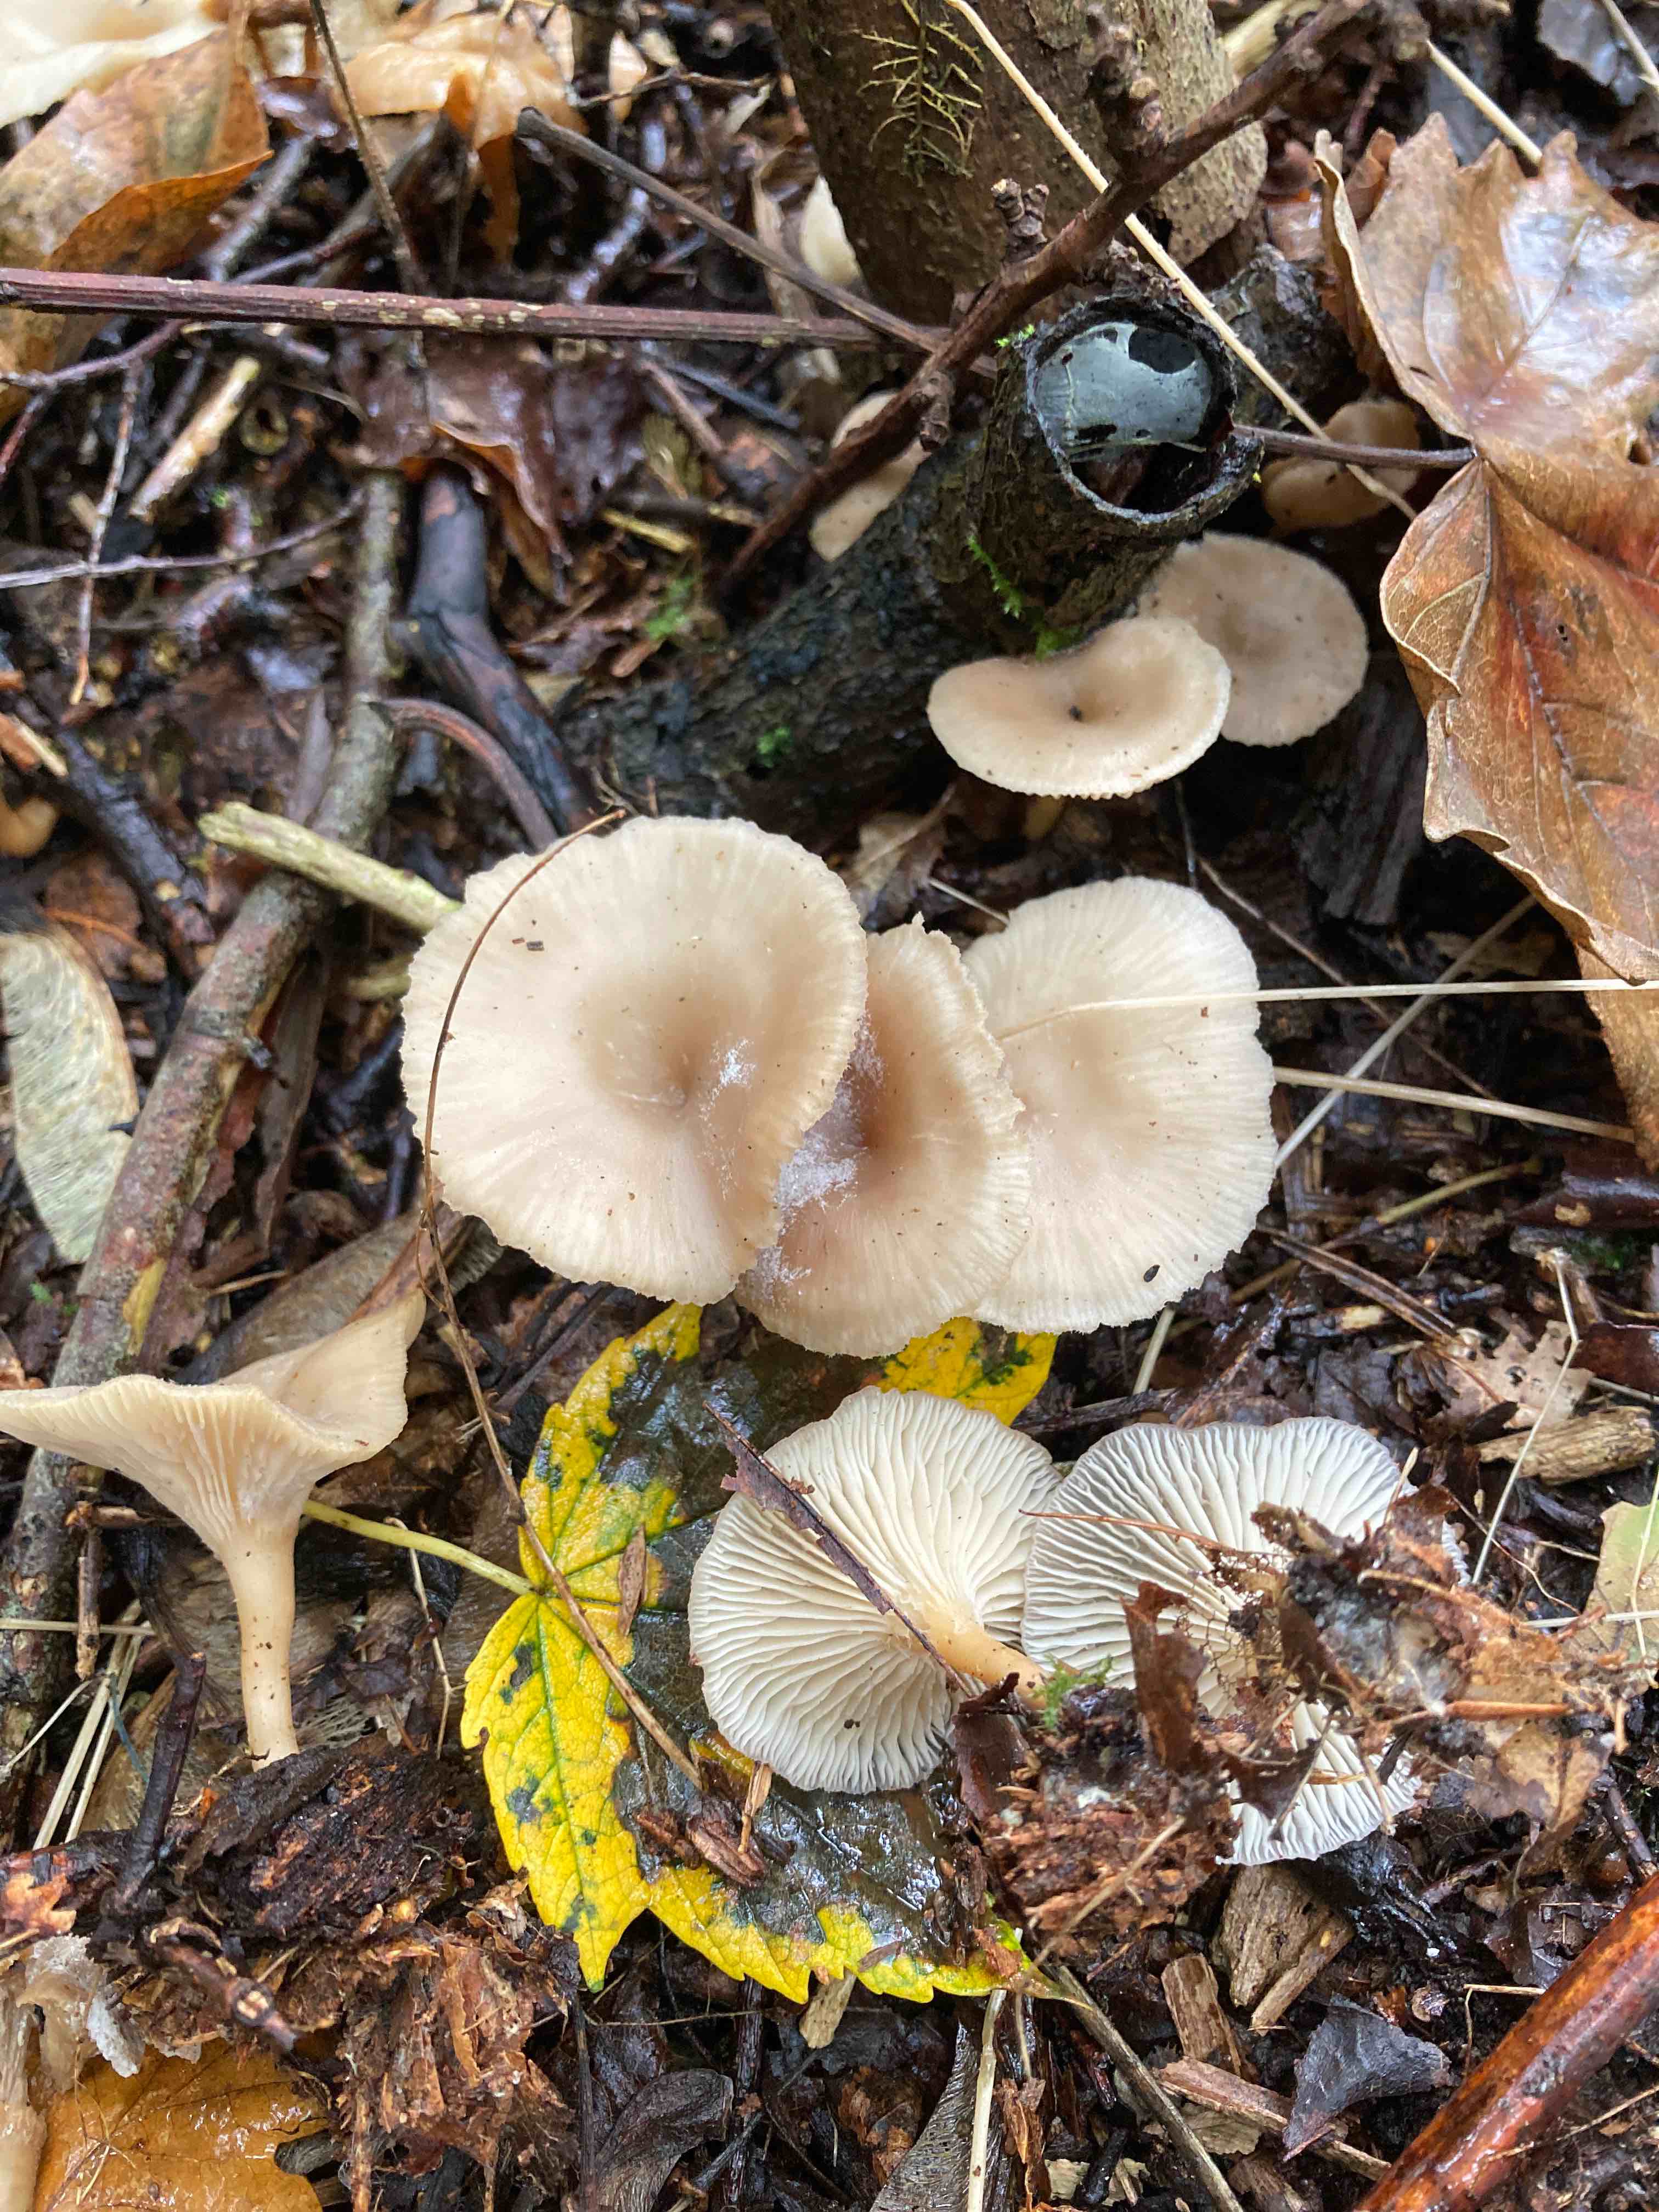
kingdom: Fungi
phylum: Basidiomycota
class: Agaricomycetes
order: Agaricales
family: Tricholomataceae
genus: Clitocybe
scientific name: Clitocybe phaeophthalma
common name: stinkende tragthat
